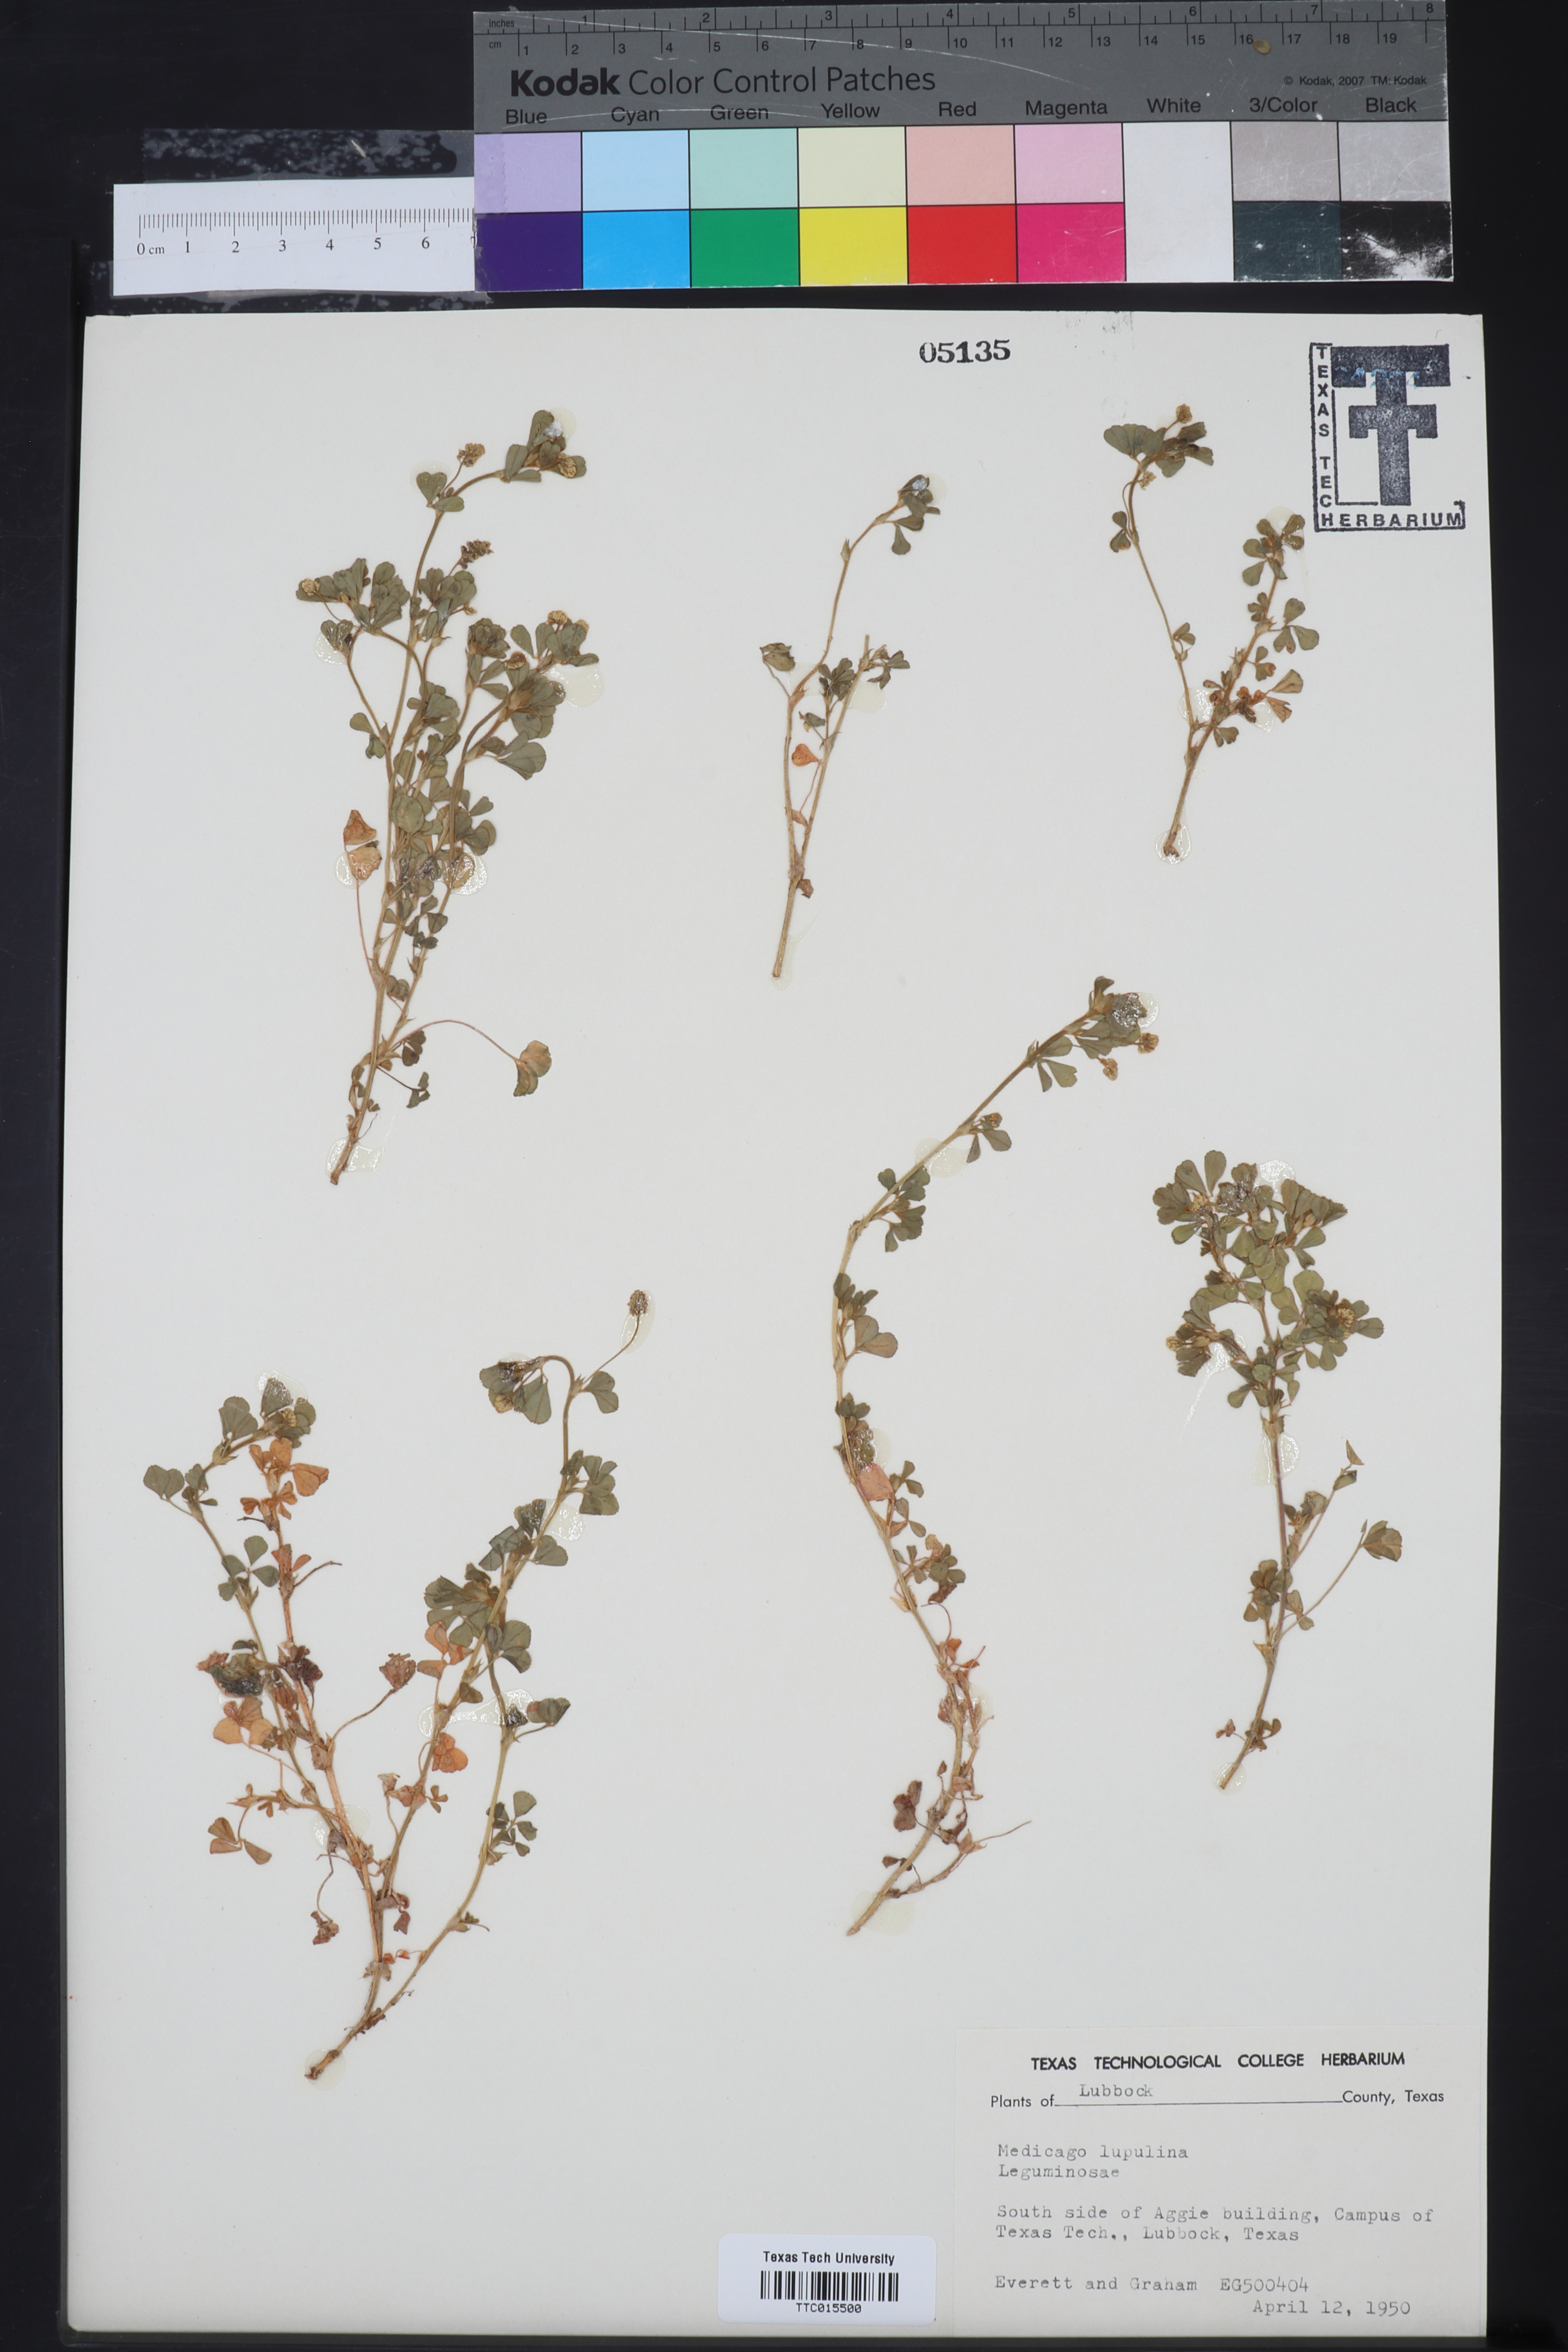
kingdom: Plantae
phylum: Tracheophyta
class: Magnoliopsida
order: Fabales
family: Fabaceae
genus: Medicago
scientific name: Medicago lupulina
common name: Black medick
